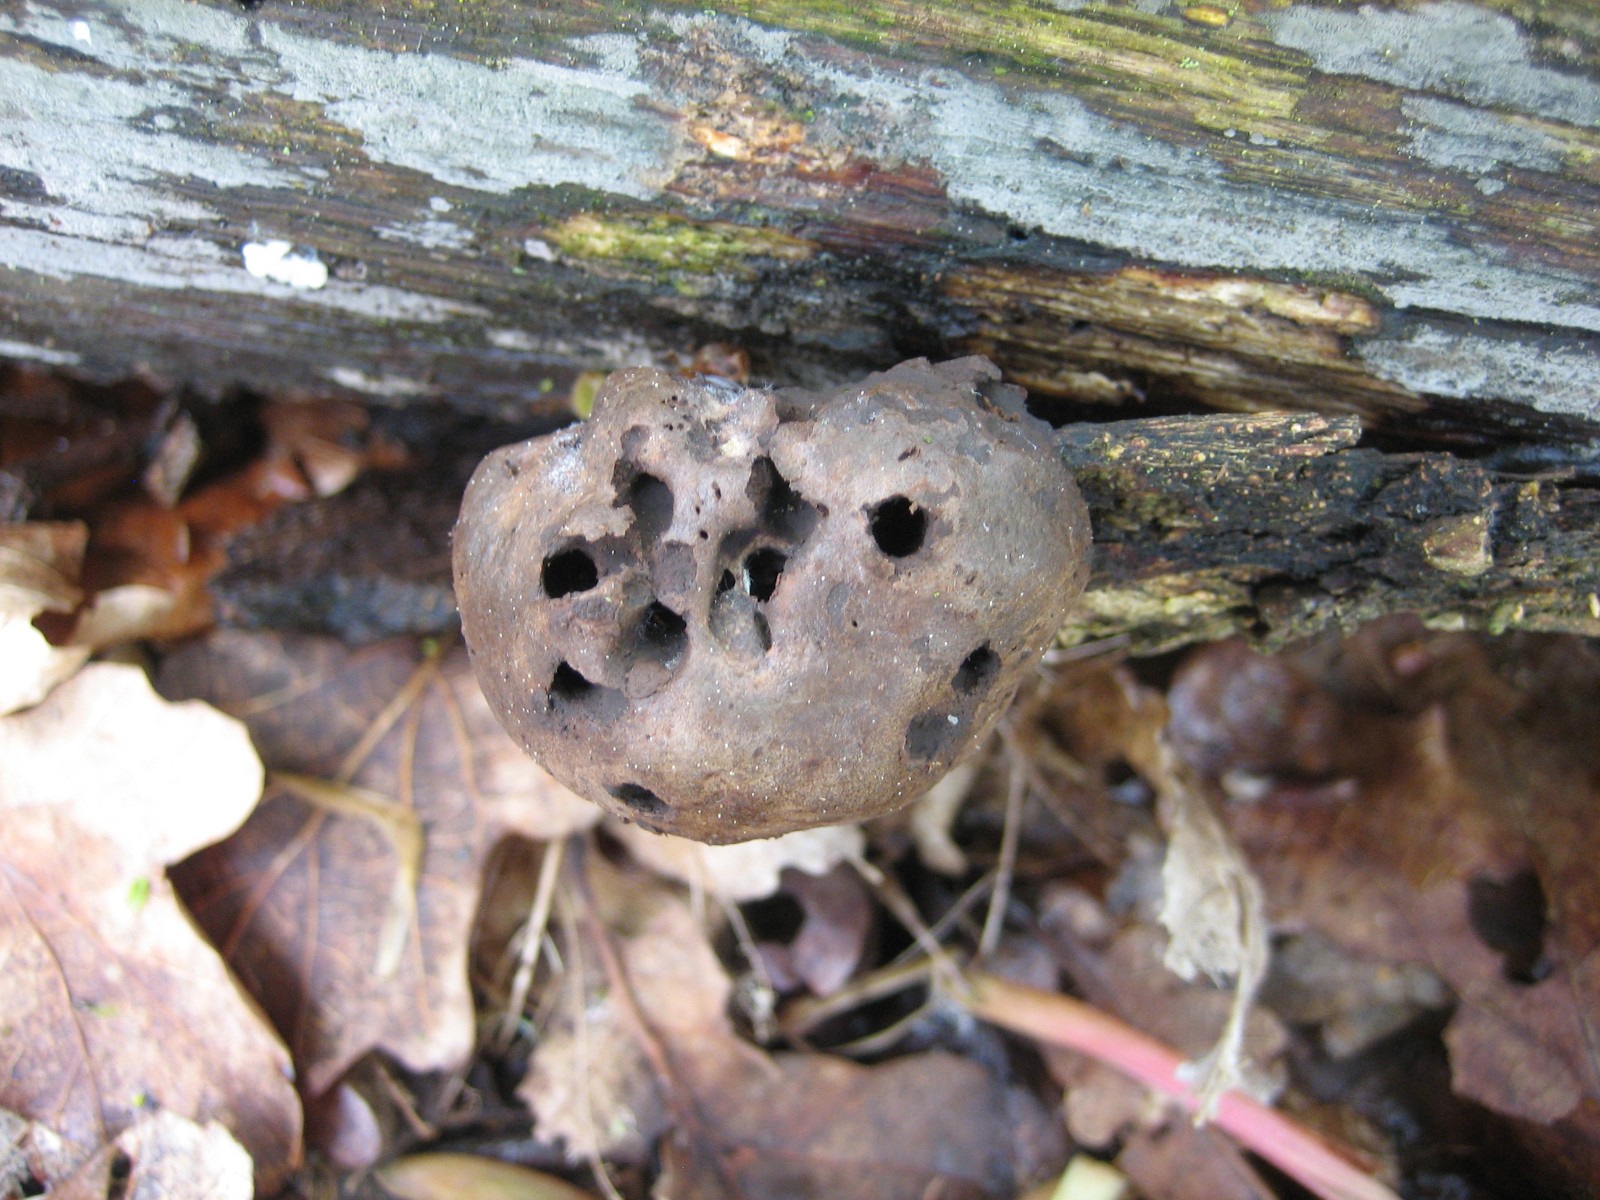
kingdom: Protozoa
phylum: Mycetozoa
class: Myxomycetes
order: Cribrariales
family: Tubiferaceae
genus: Reticularia
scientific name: Reticularia lycoperdon
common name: skinnende støvpude
